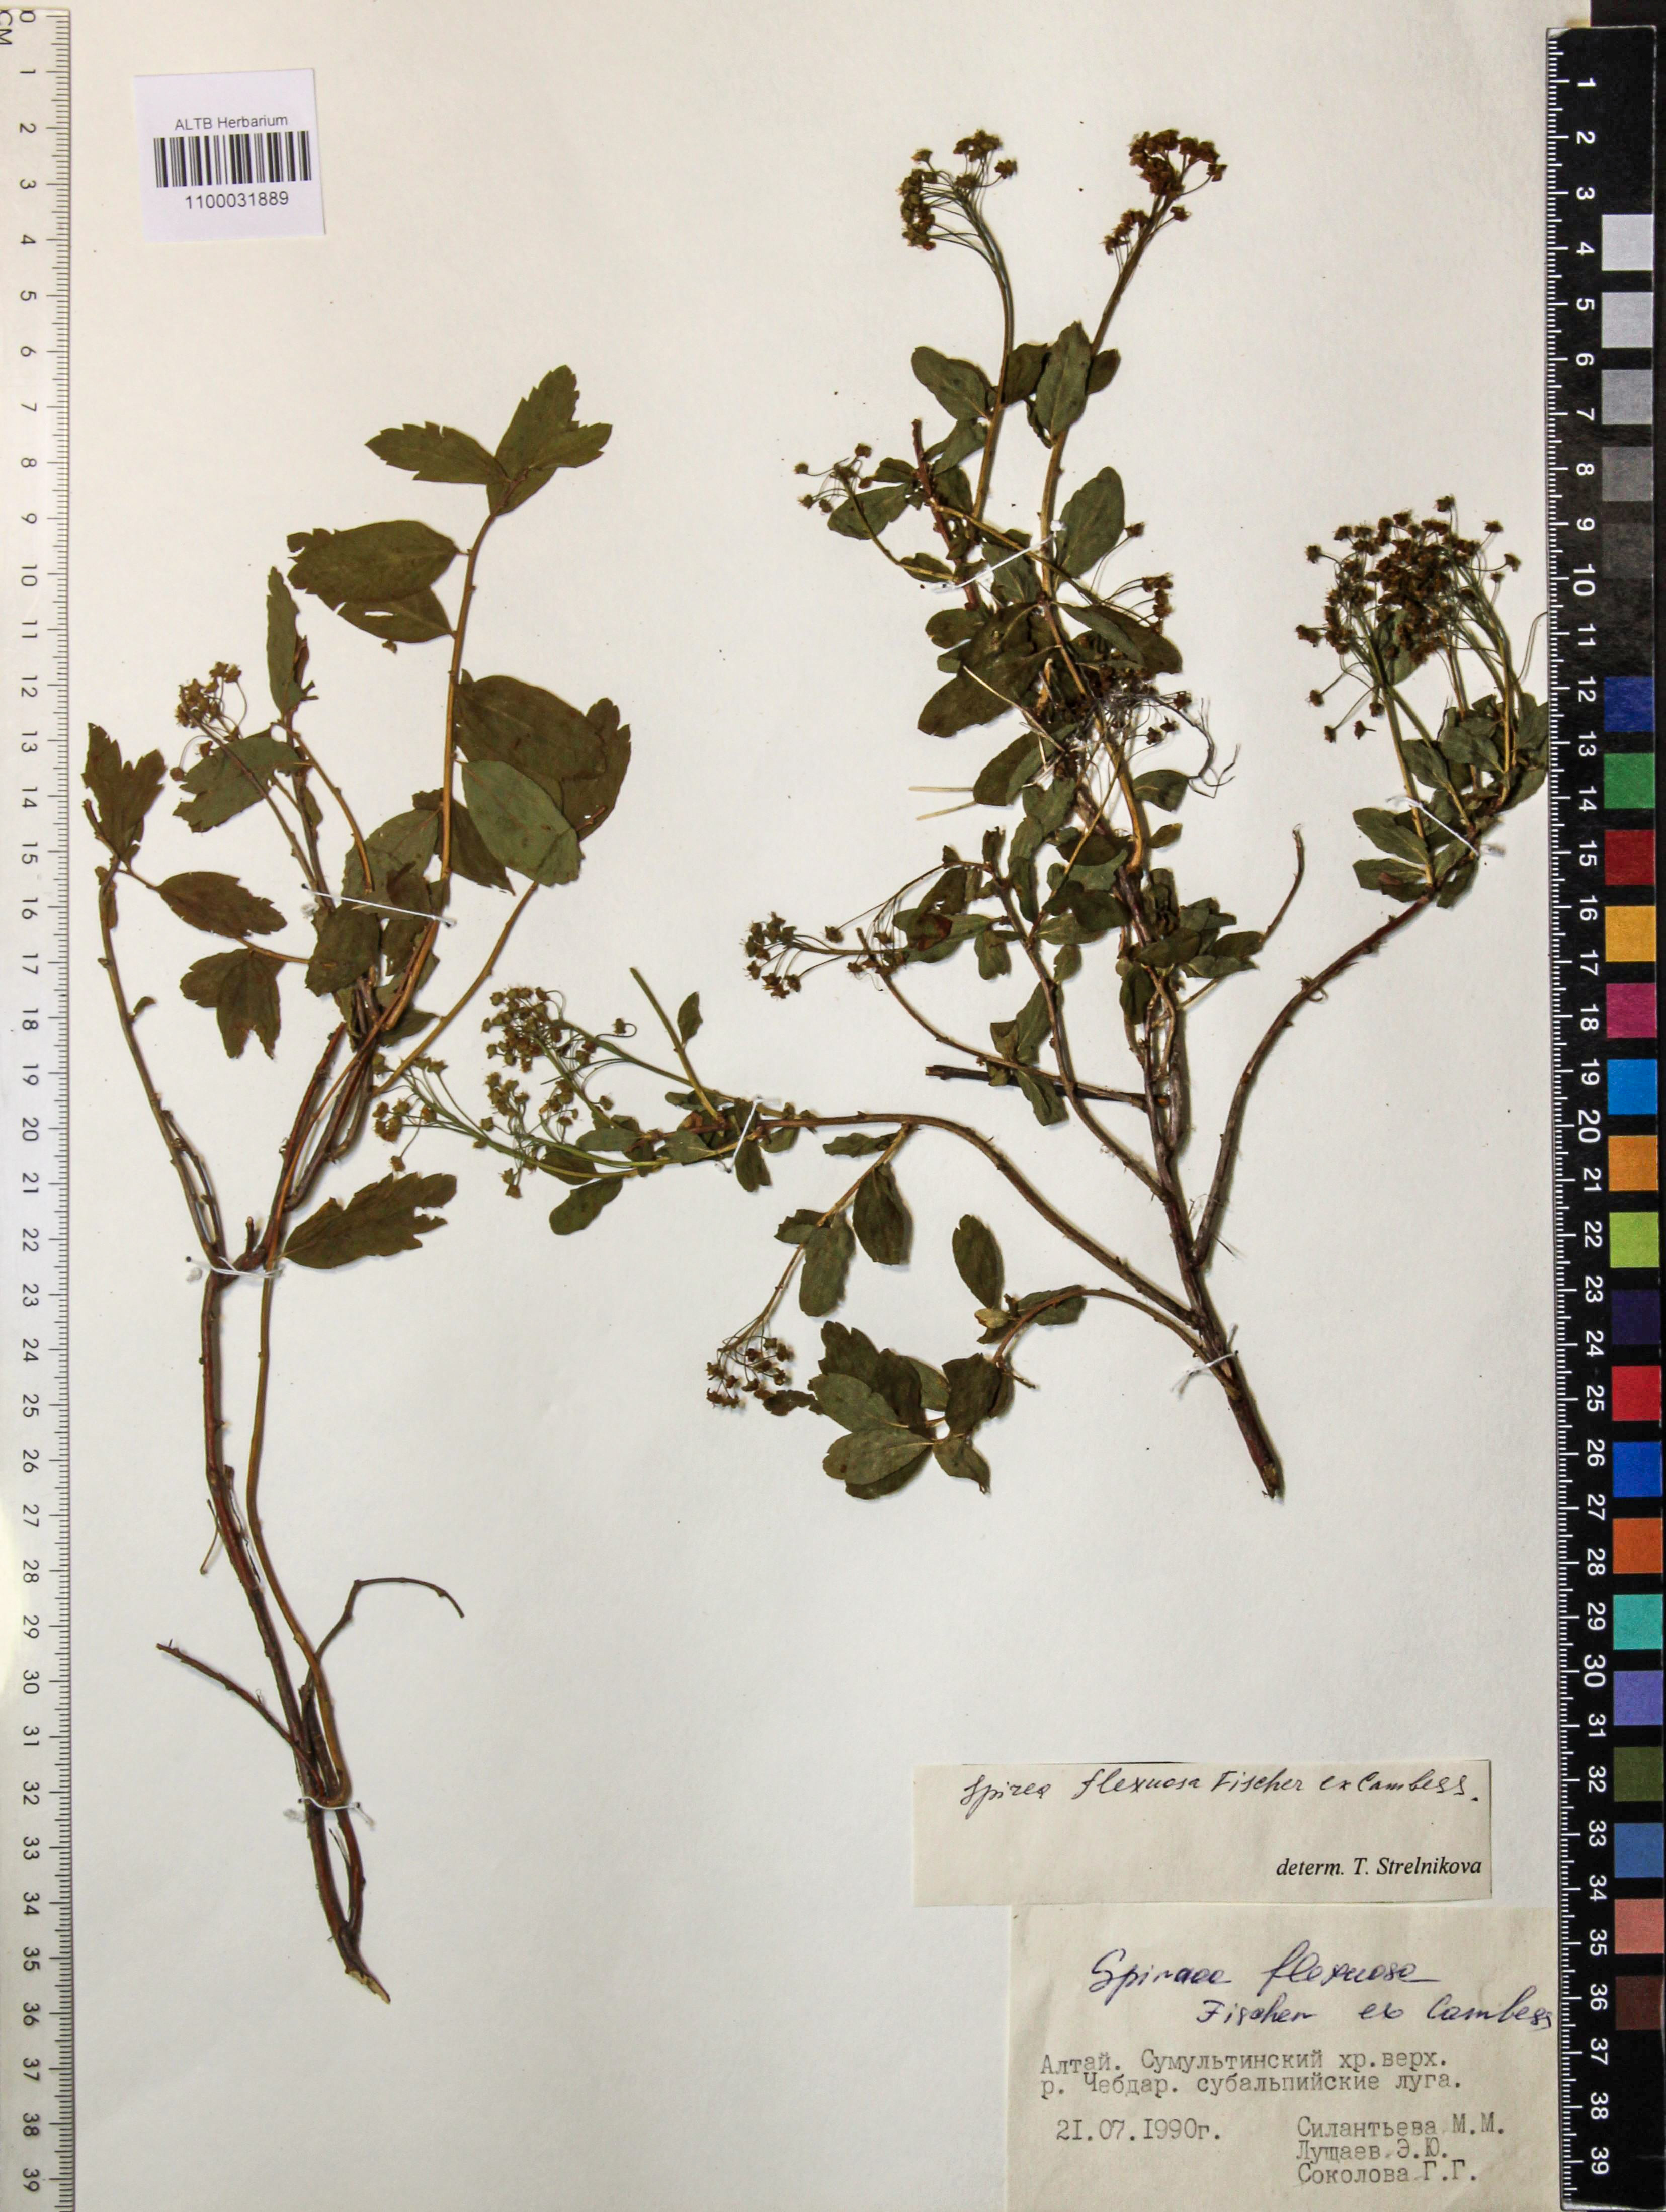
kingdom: Plantae
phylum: Tracheophyta
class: Magnoliopsida
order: Rosales
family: Rosaceae
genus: Spiraea
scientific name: Spiraea flexuosa
